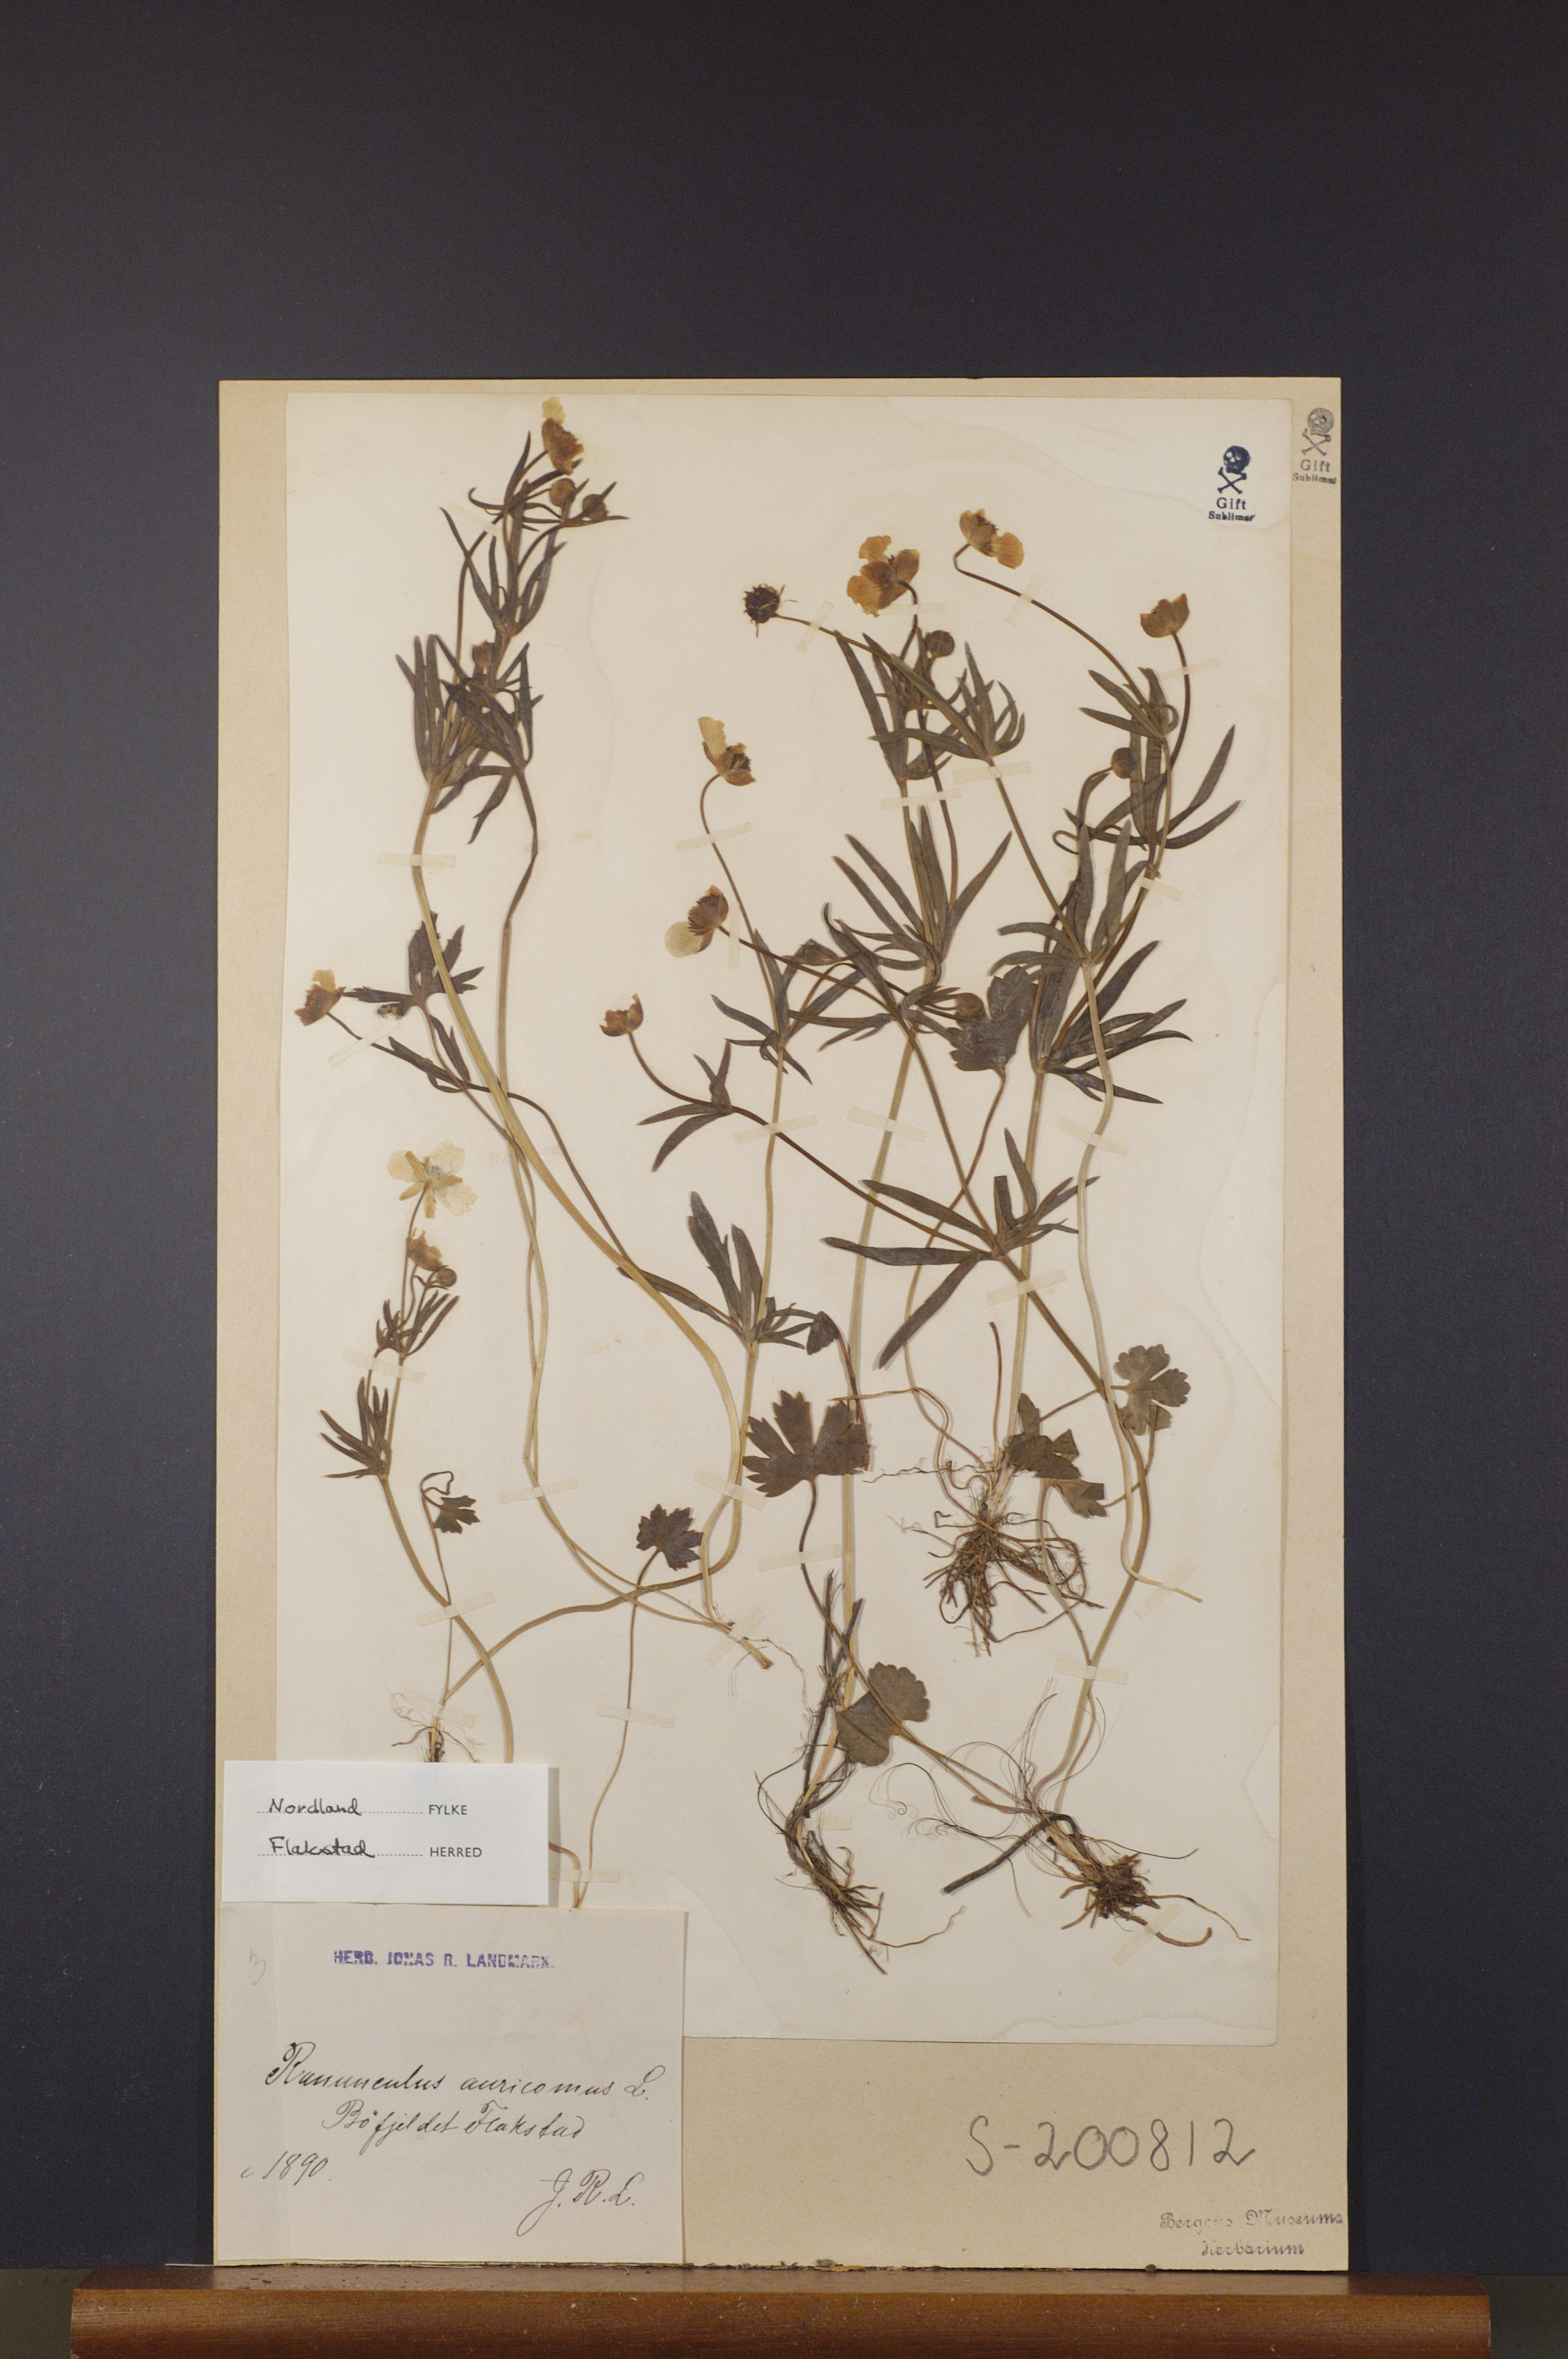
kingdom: Plantae
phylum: Tracheophyta
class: Magnoliopsida
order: Ranunculales
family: Ranunculaceae
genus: Ranunculus
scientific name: Ranunculus auricomus
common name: Goldilocks buttercup
